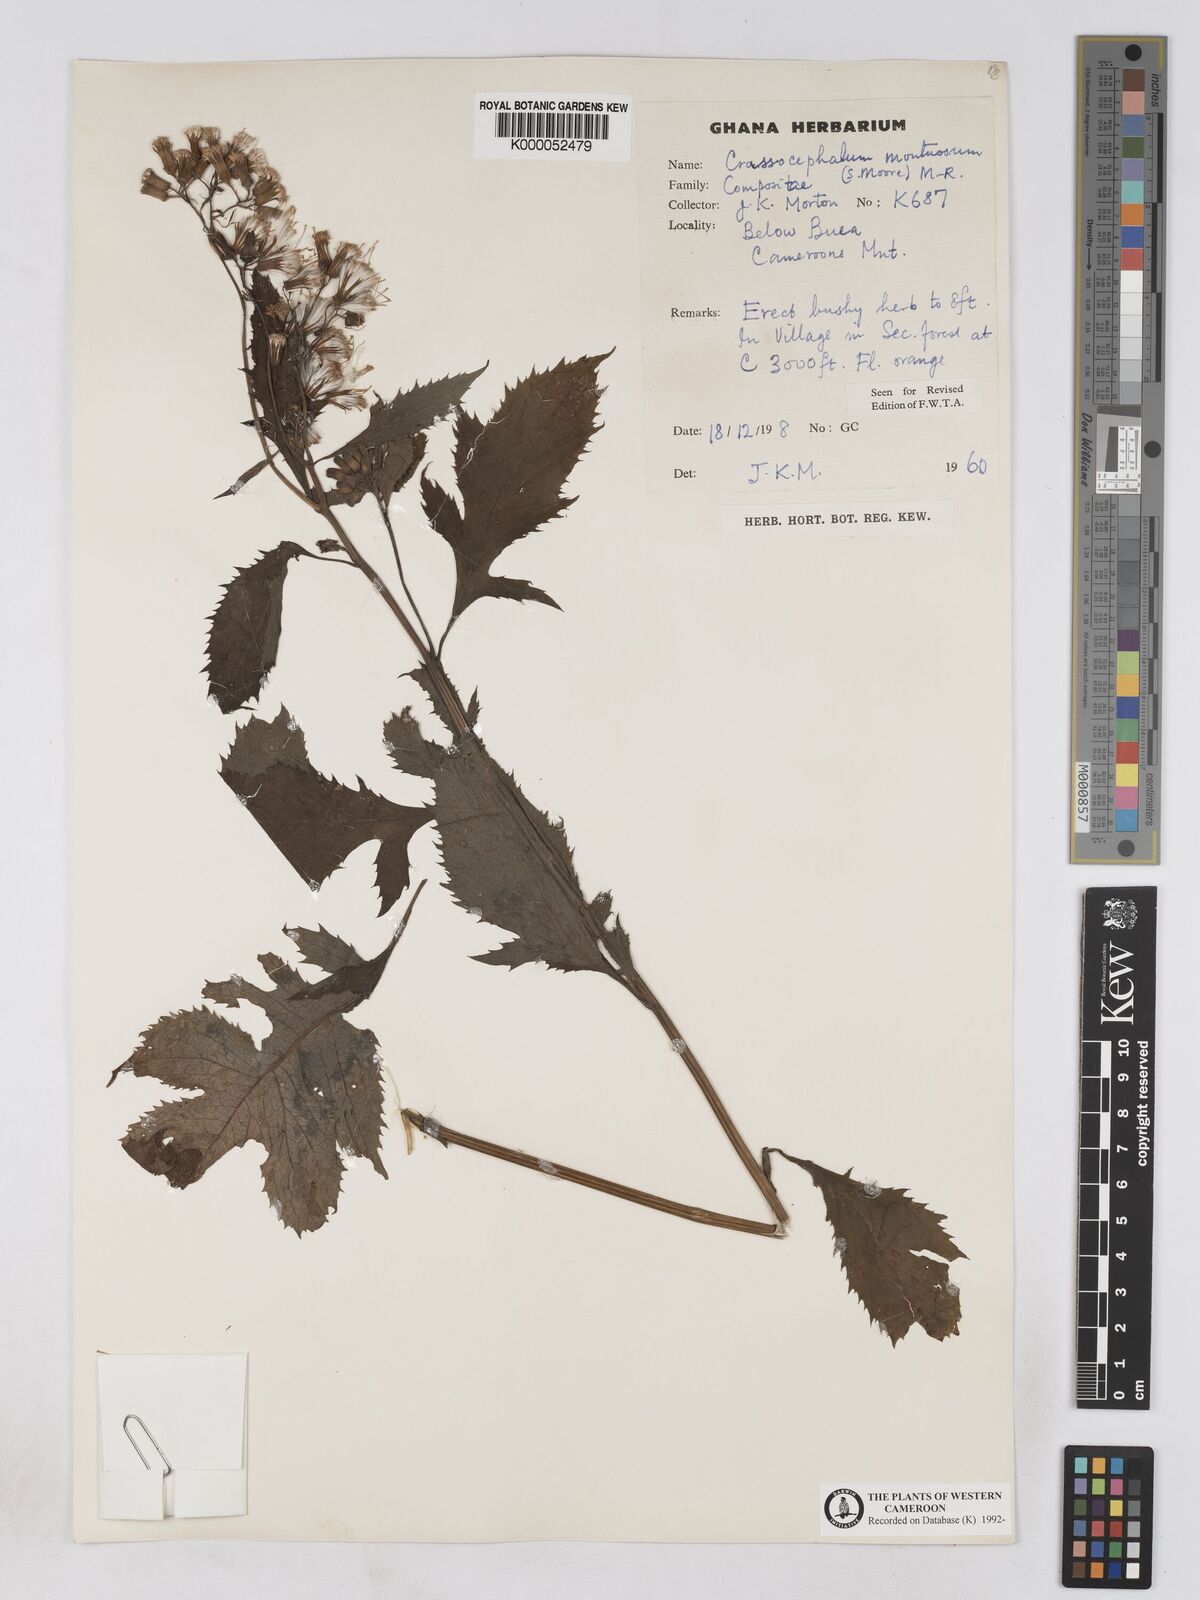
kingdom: Plantae
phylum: Tracheophyta
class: Magnoliopsida
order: Asterales
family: Asteraceae
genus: Crassocephalum
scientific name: Crassocephalum montuosum
